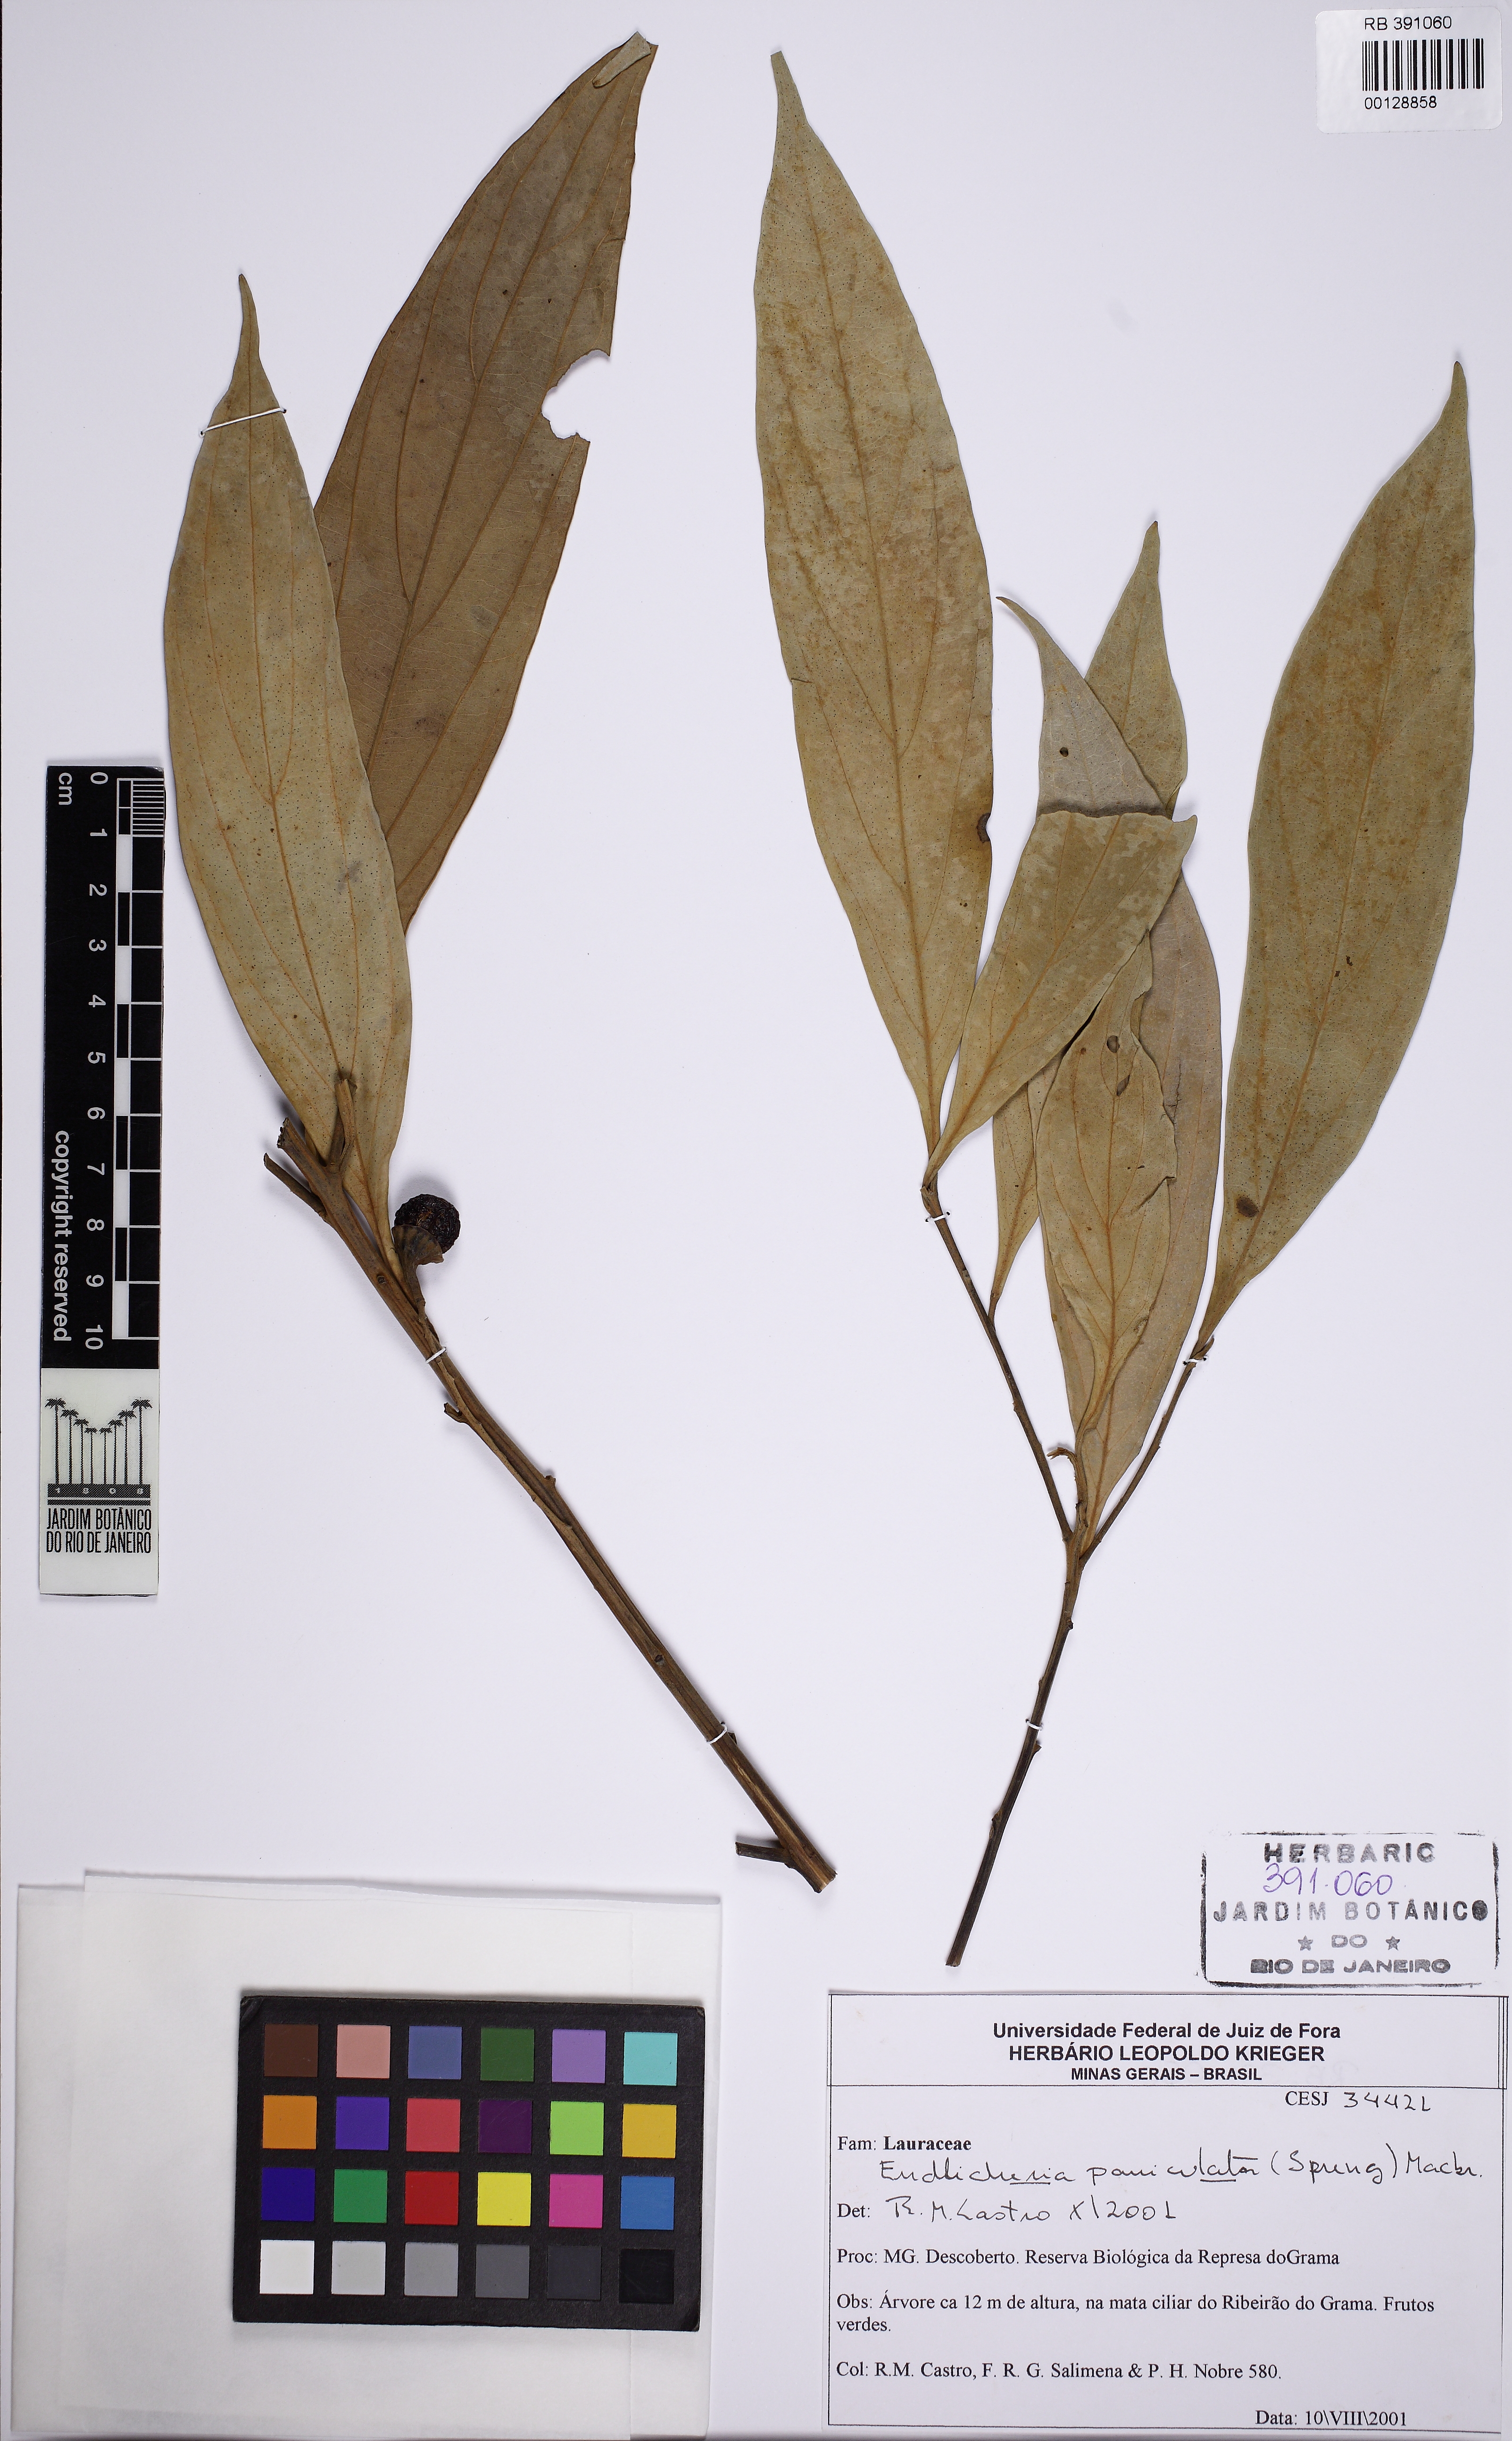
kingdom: Plantae
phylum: Tracheophyta
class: Magnoliopsida
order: Laurales
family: Lauraceae
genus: Endlicheria
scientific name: Endlicheria paniculata
